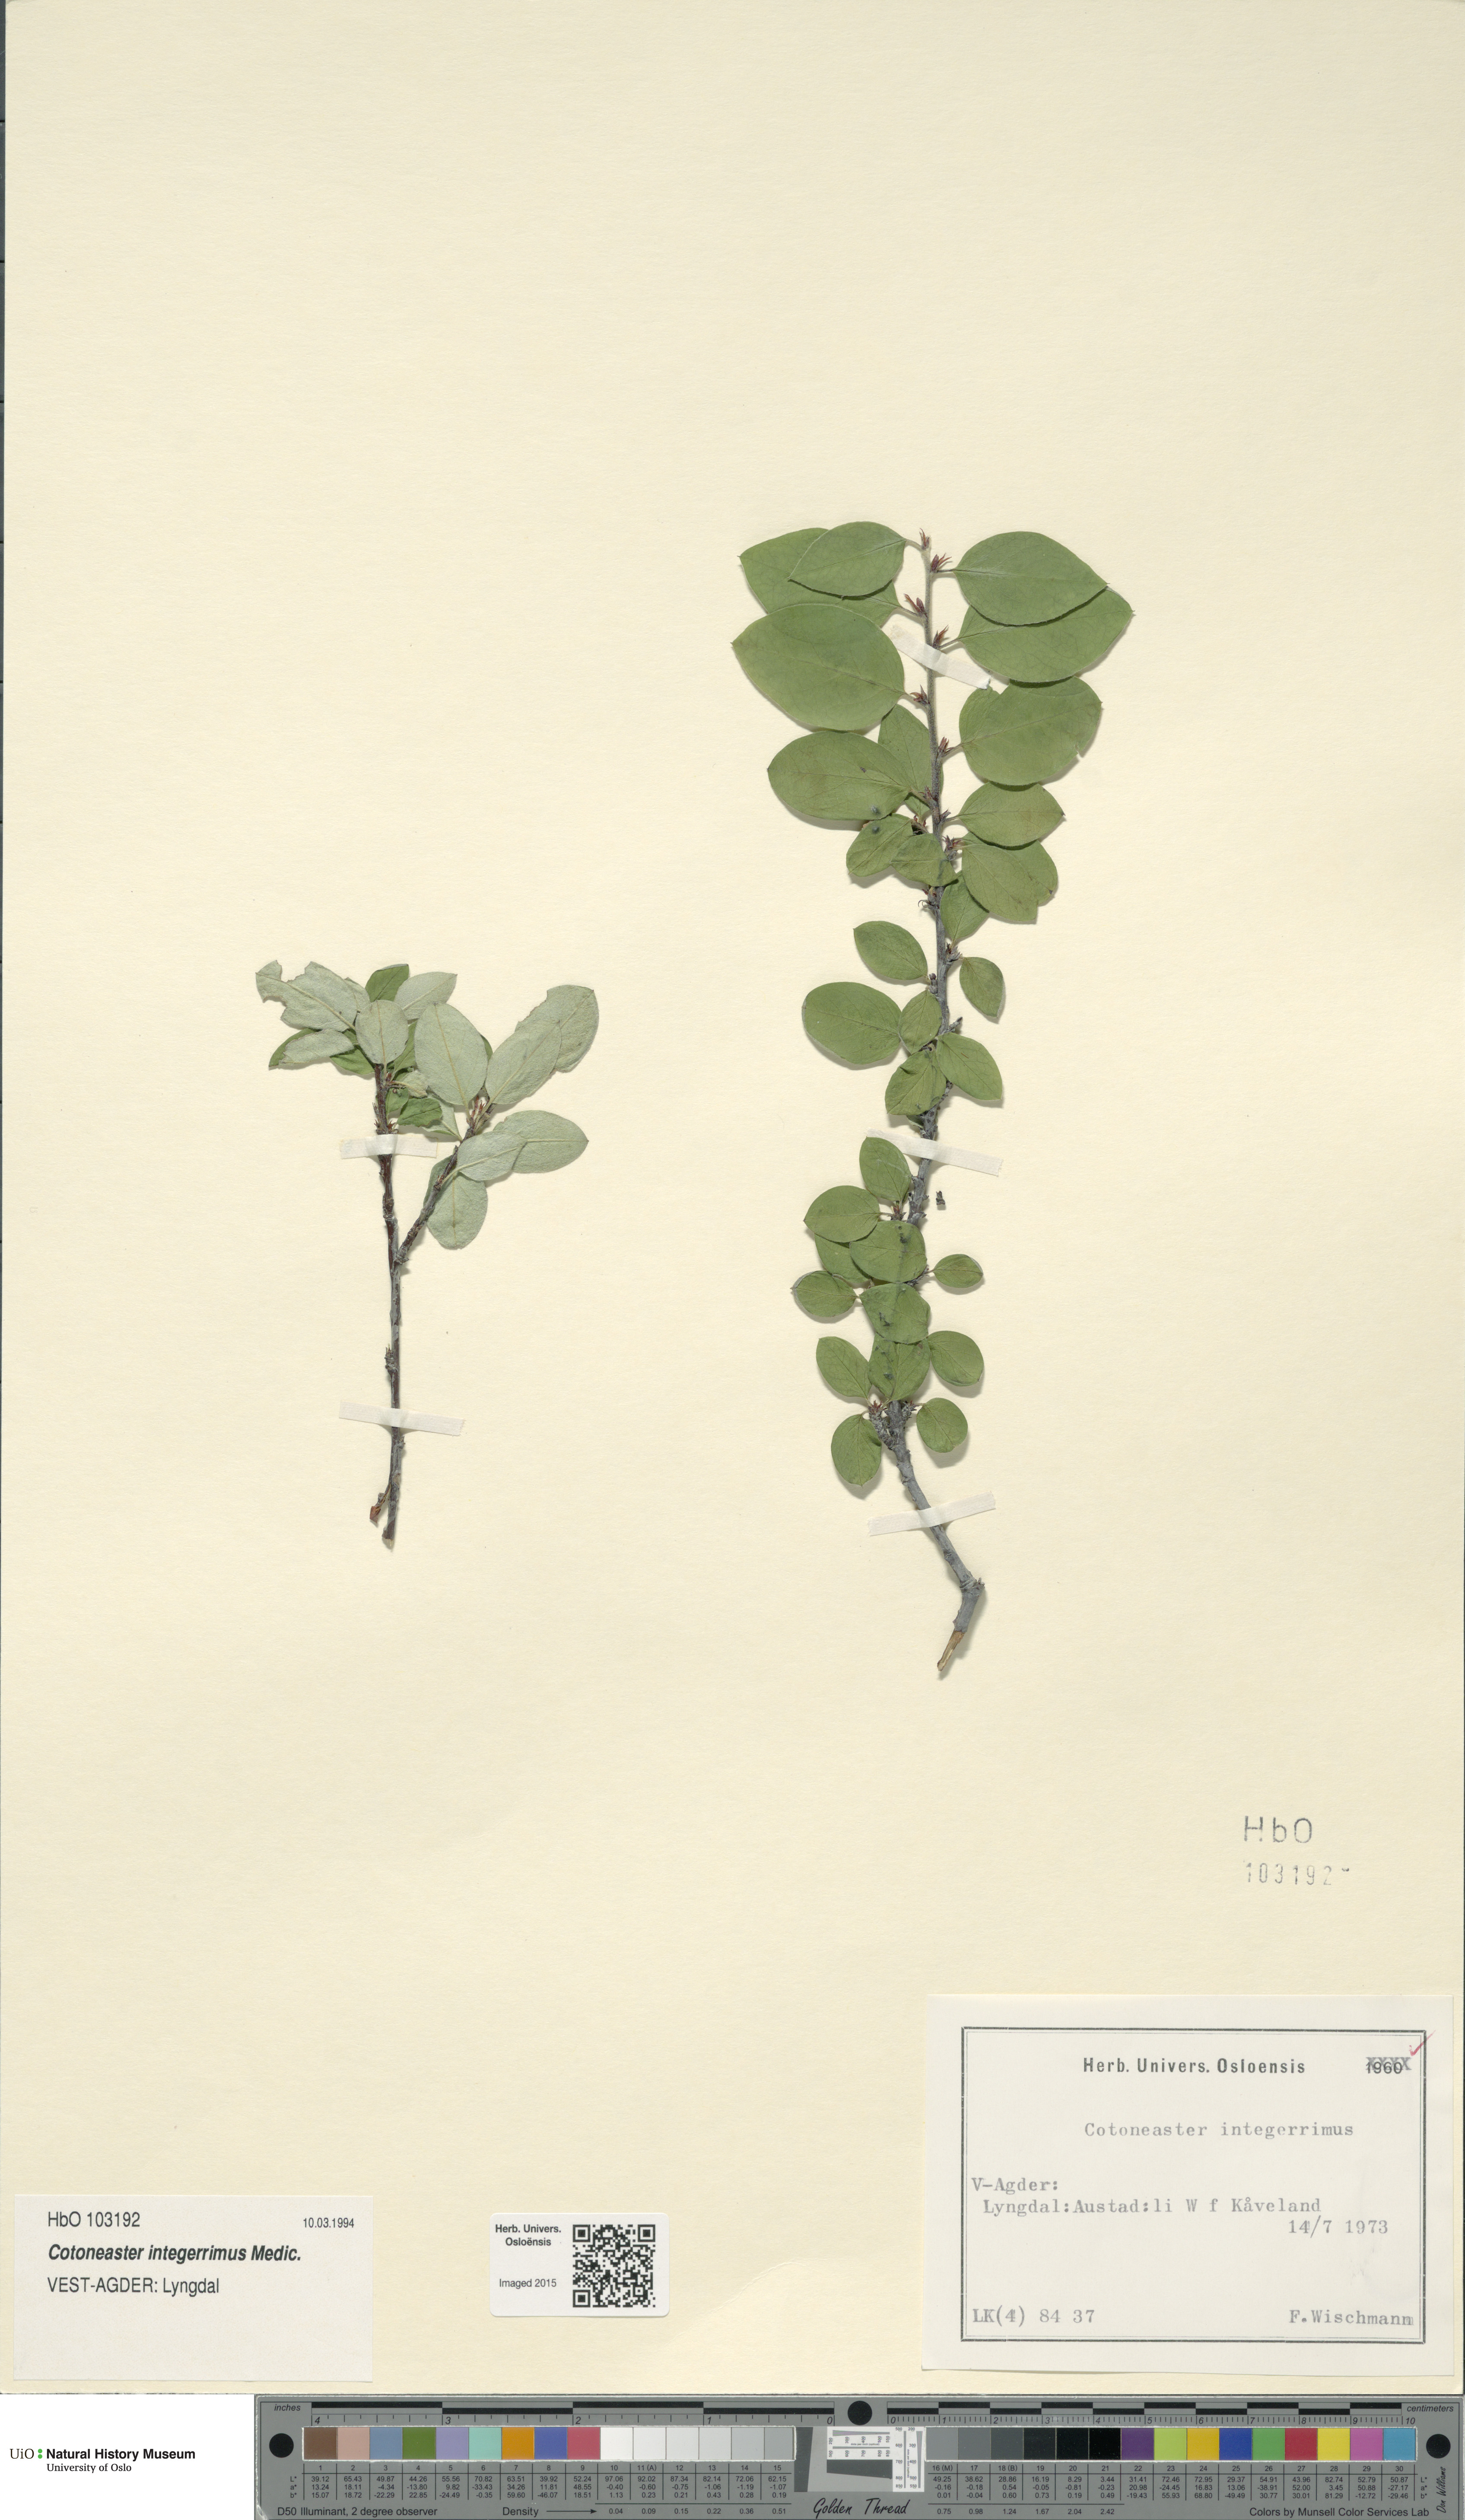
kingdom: Plantae
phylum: Tracheophyta
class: Magnoliopsida
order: Rosales
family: Rosaceae
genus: Cotoneaster
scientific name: Cotoneaster integerrimus
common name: Wild cotoneaster
